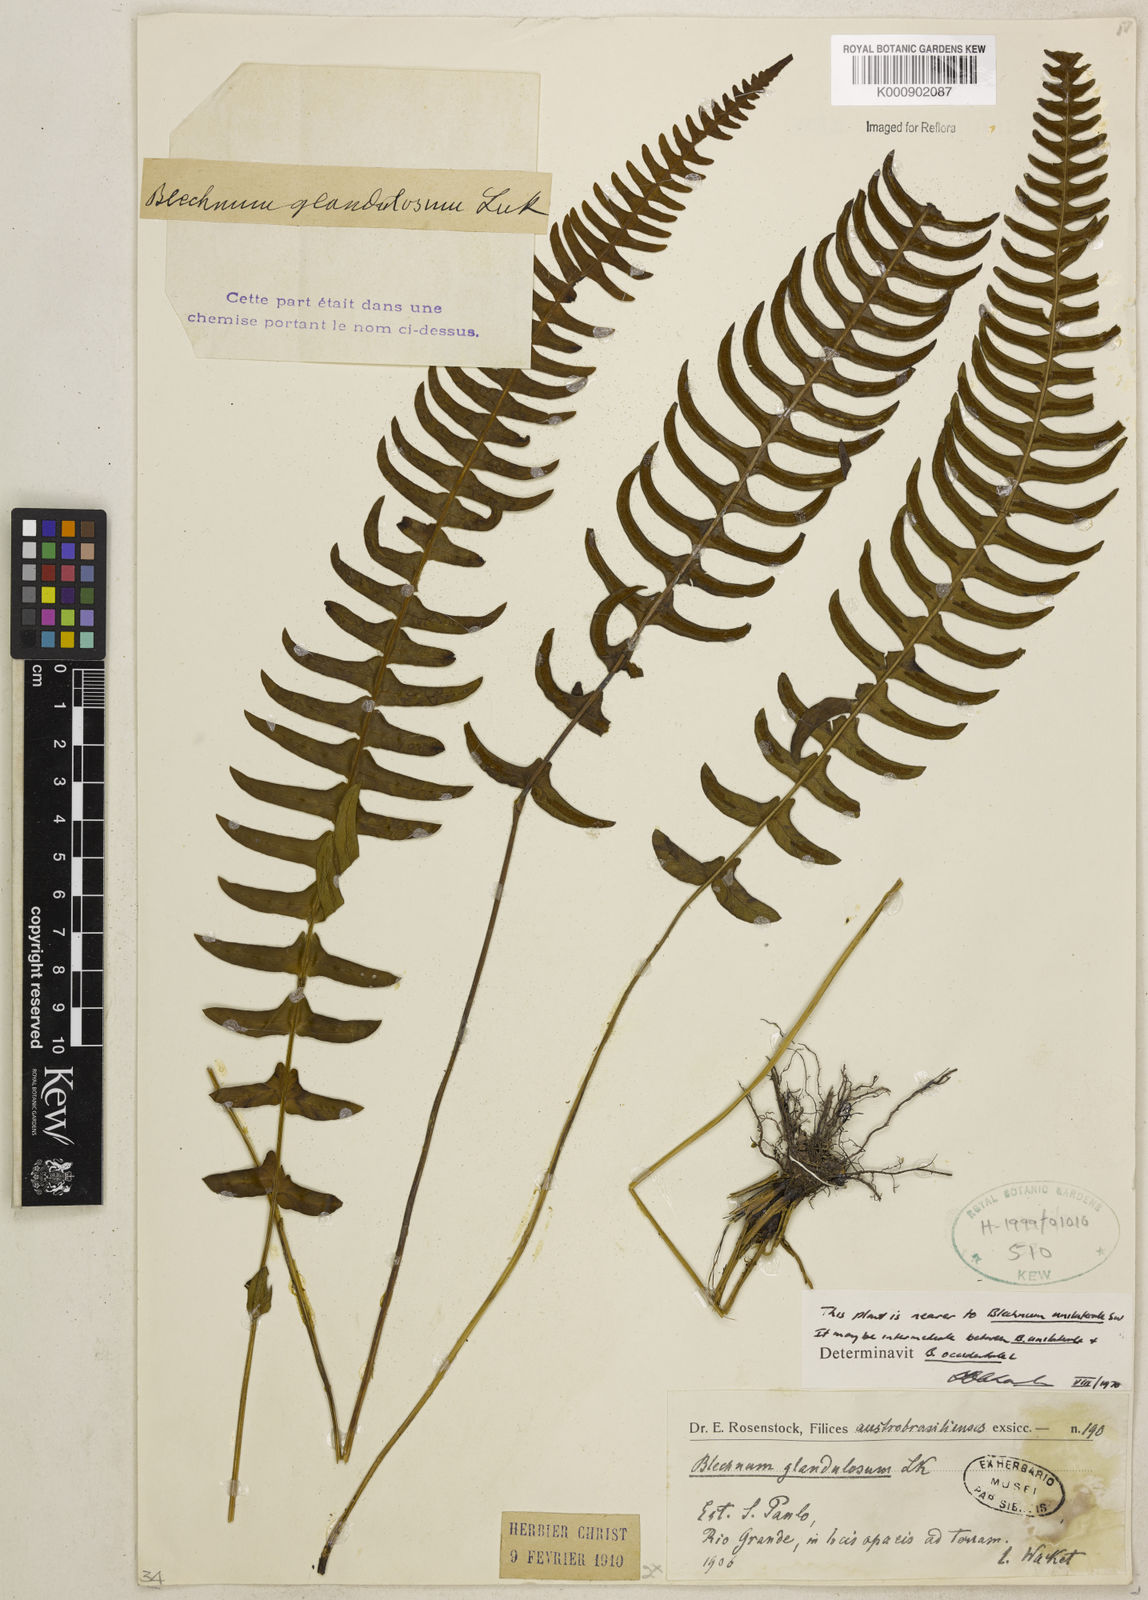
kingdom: Plantae
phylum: Tracheophyta
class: Polypodiopsida
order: Polypodiales
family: Blechnaceae
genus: Blechnum
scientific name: Blechnum polypodioides
